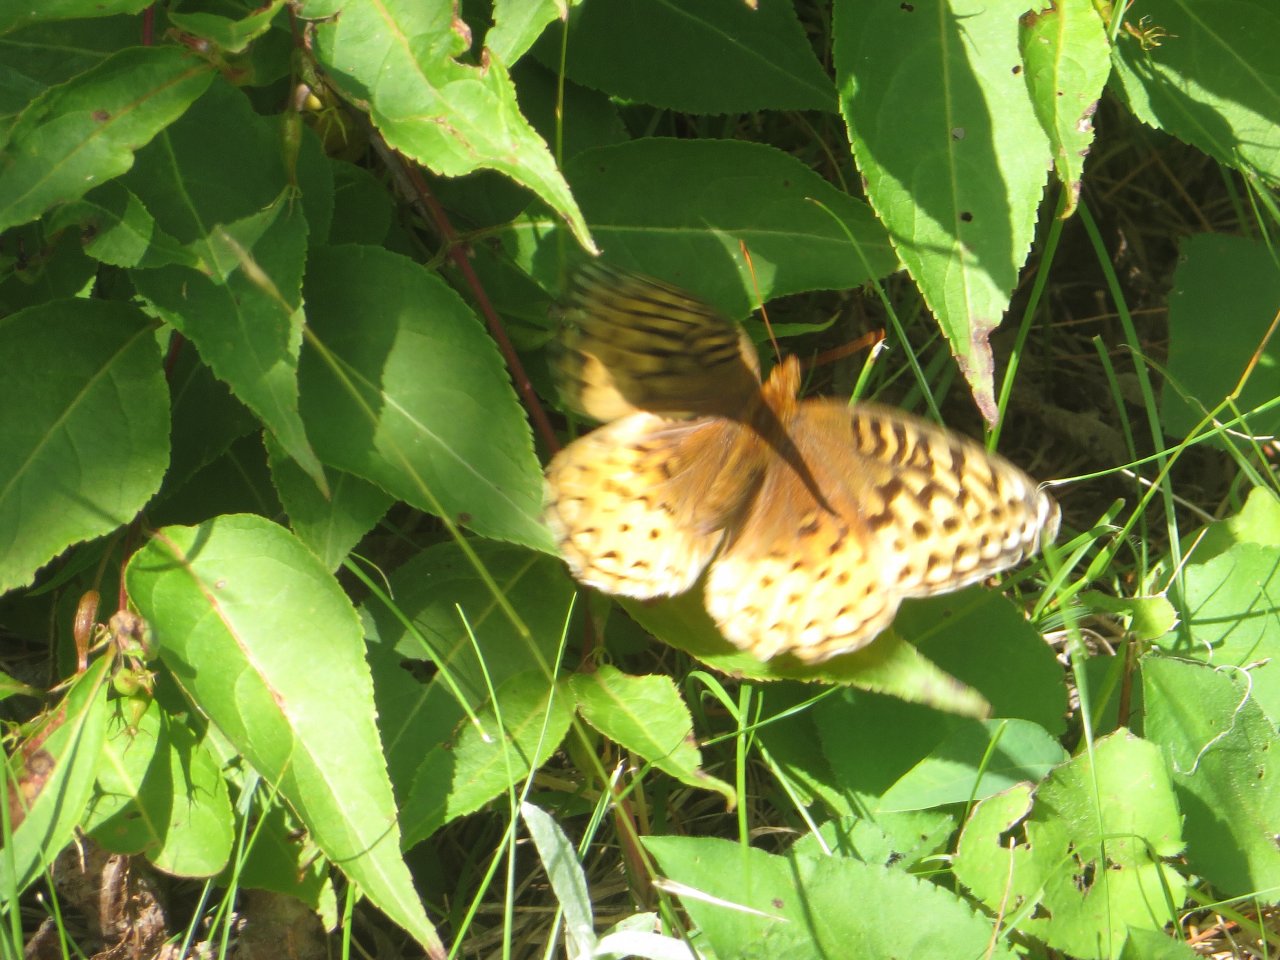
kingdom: Animalia
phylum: Arthropoda
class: Insecta
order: Lepidoptera
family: Nymphalidae
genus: Speyeria
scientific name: Speyeria cybele
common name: Great Spangled Fritillary
